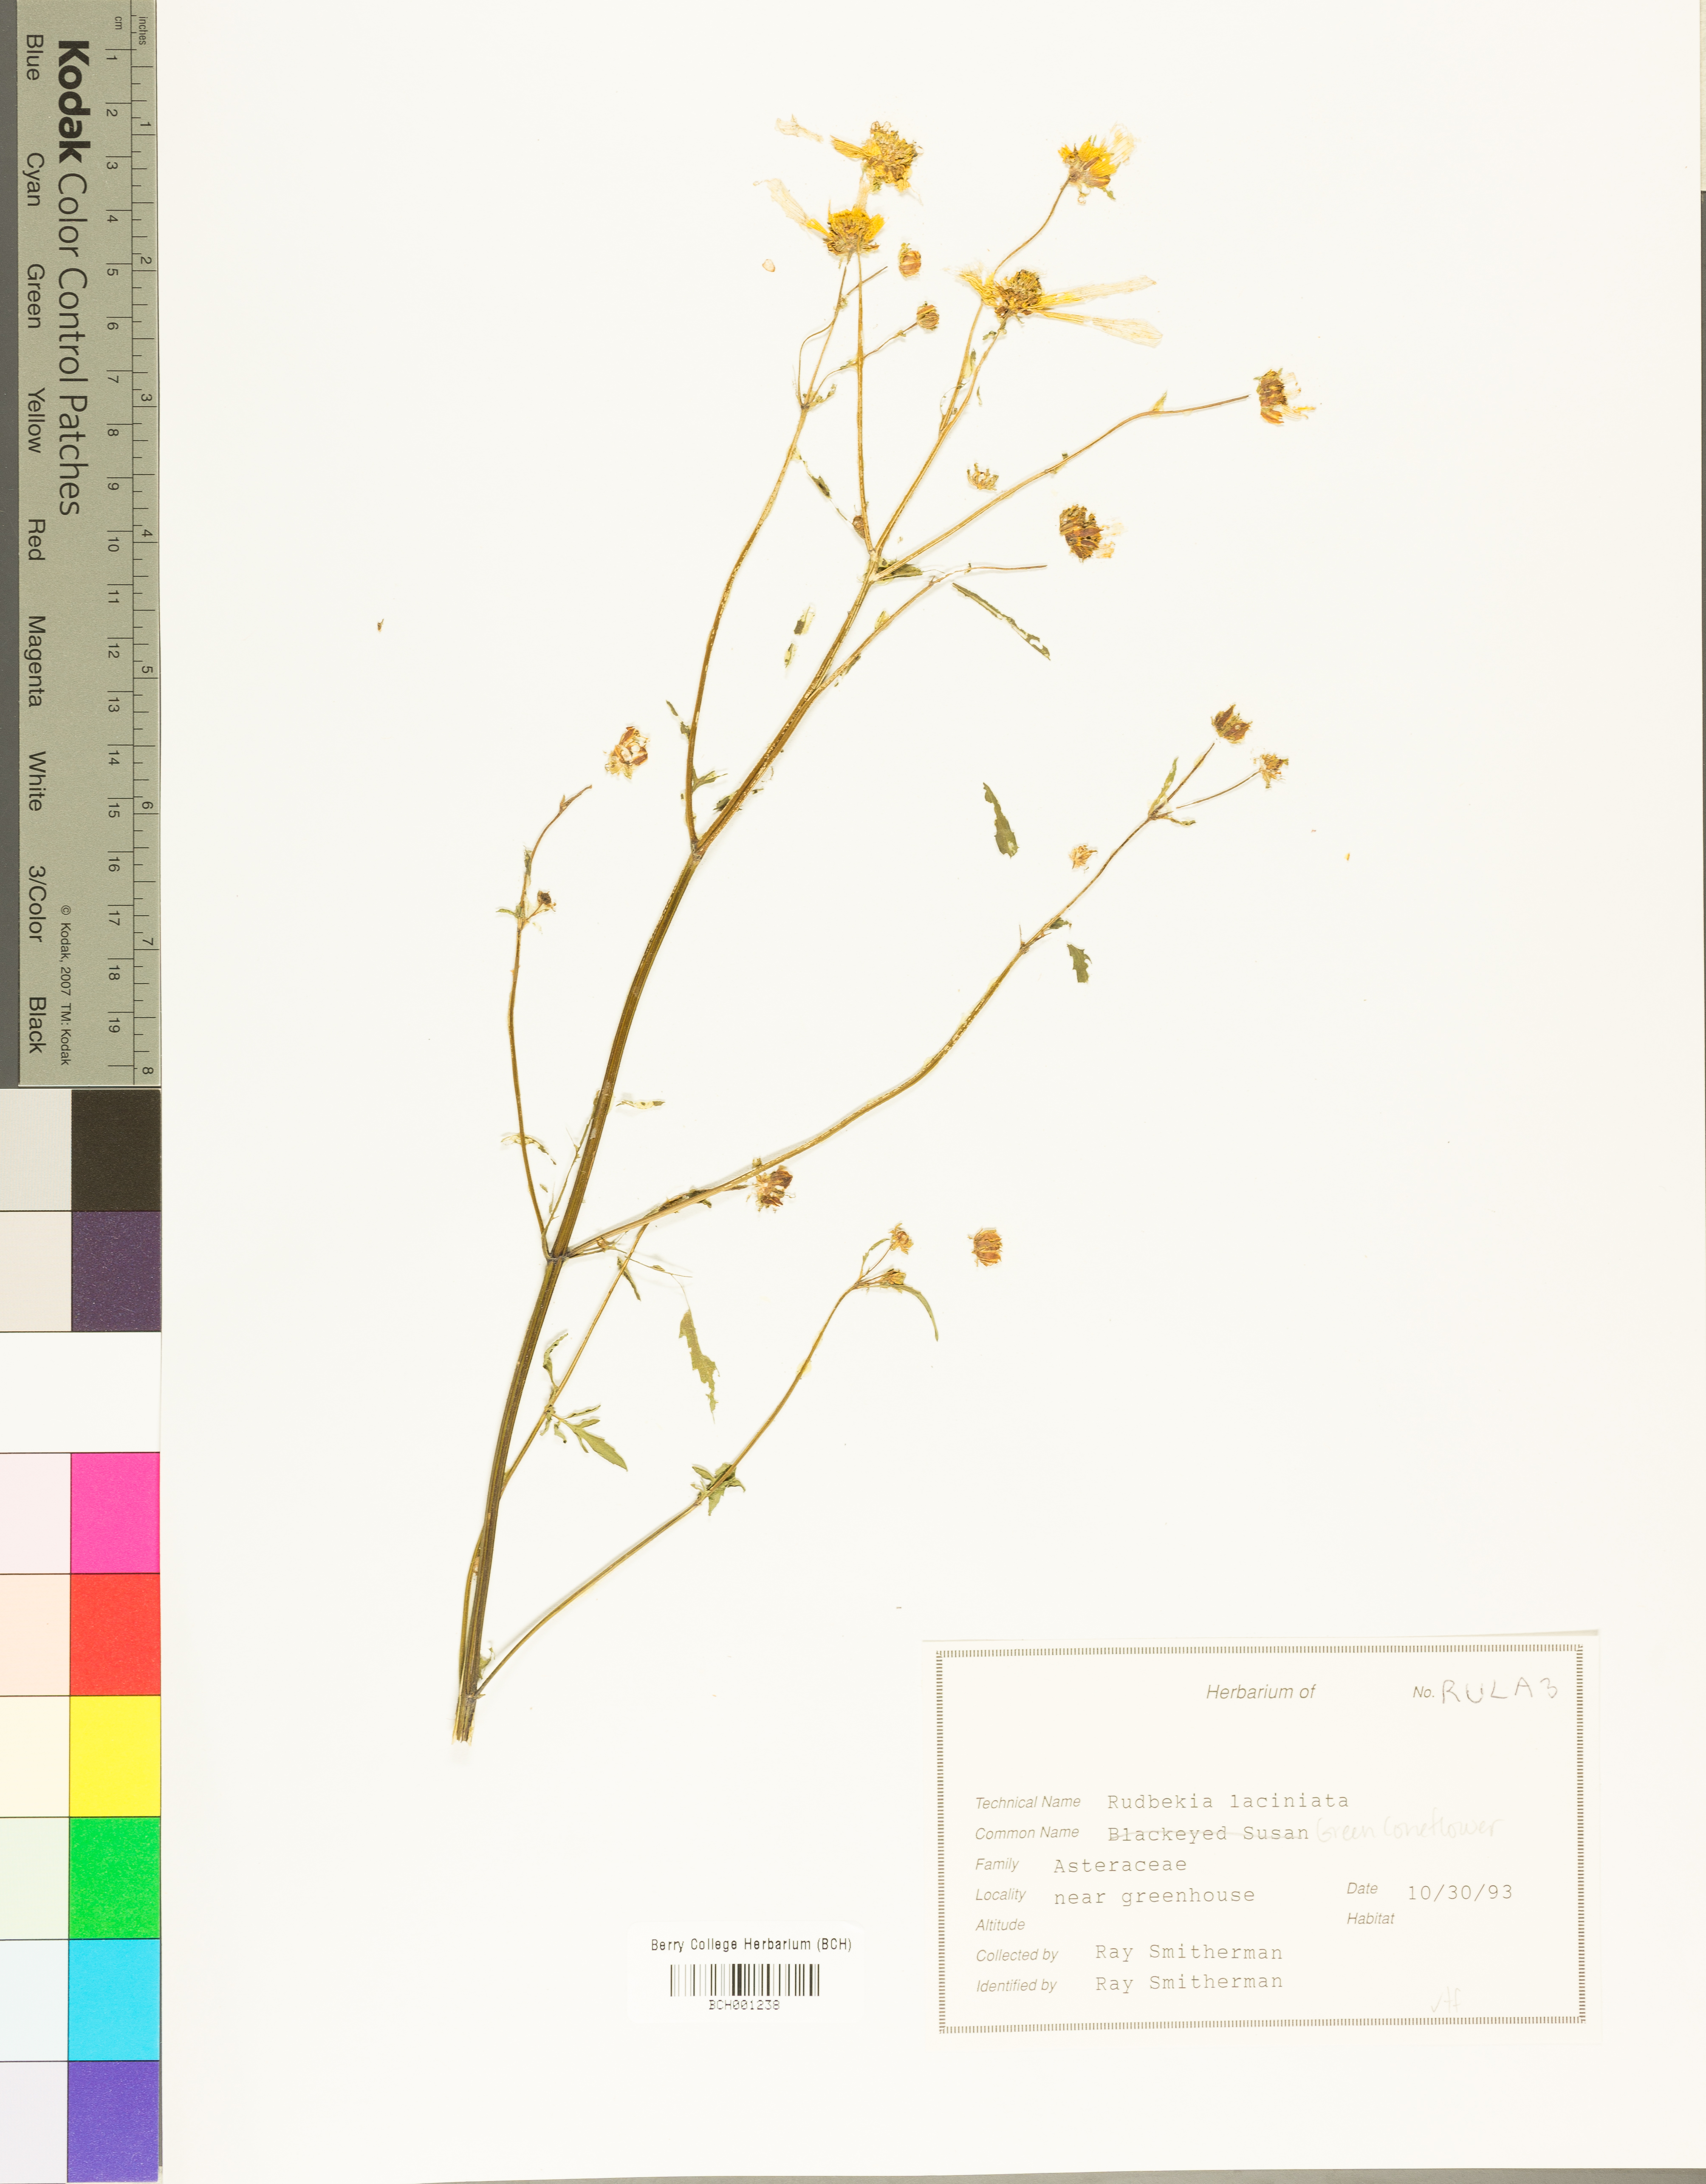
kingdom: Plantae
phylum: Tracheophyta
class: Magnoliopsida
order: Asterales
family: Asteraceae
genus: Rudbeckia
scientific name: Rudbeckia laciniata
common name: Coneflower
